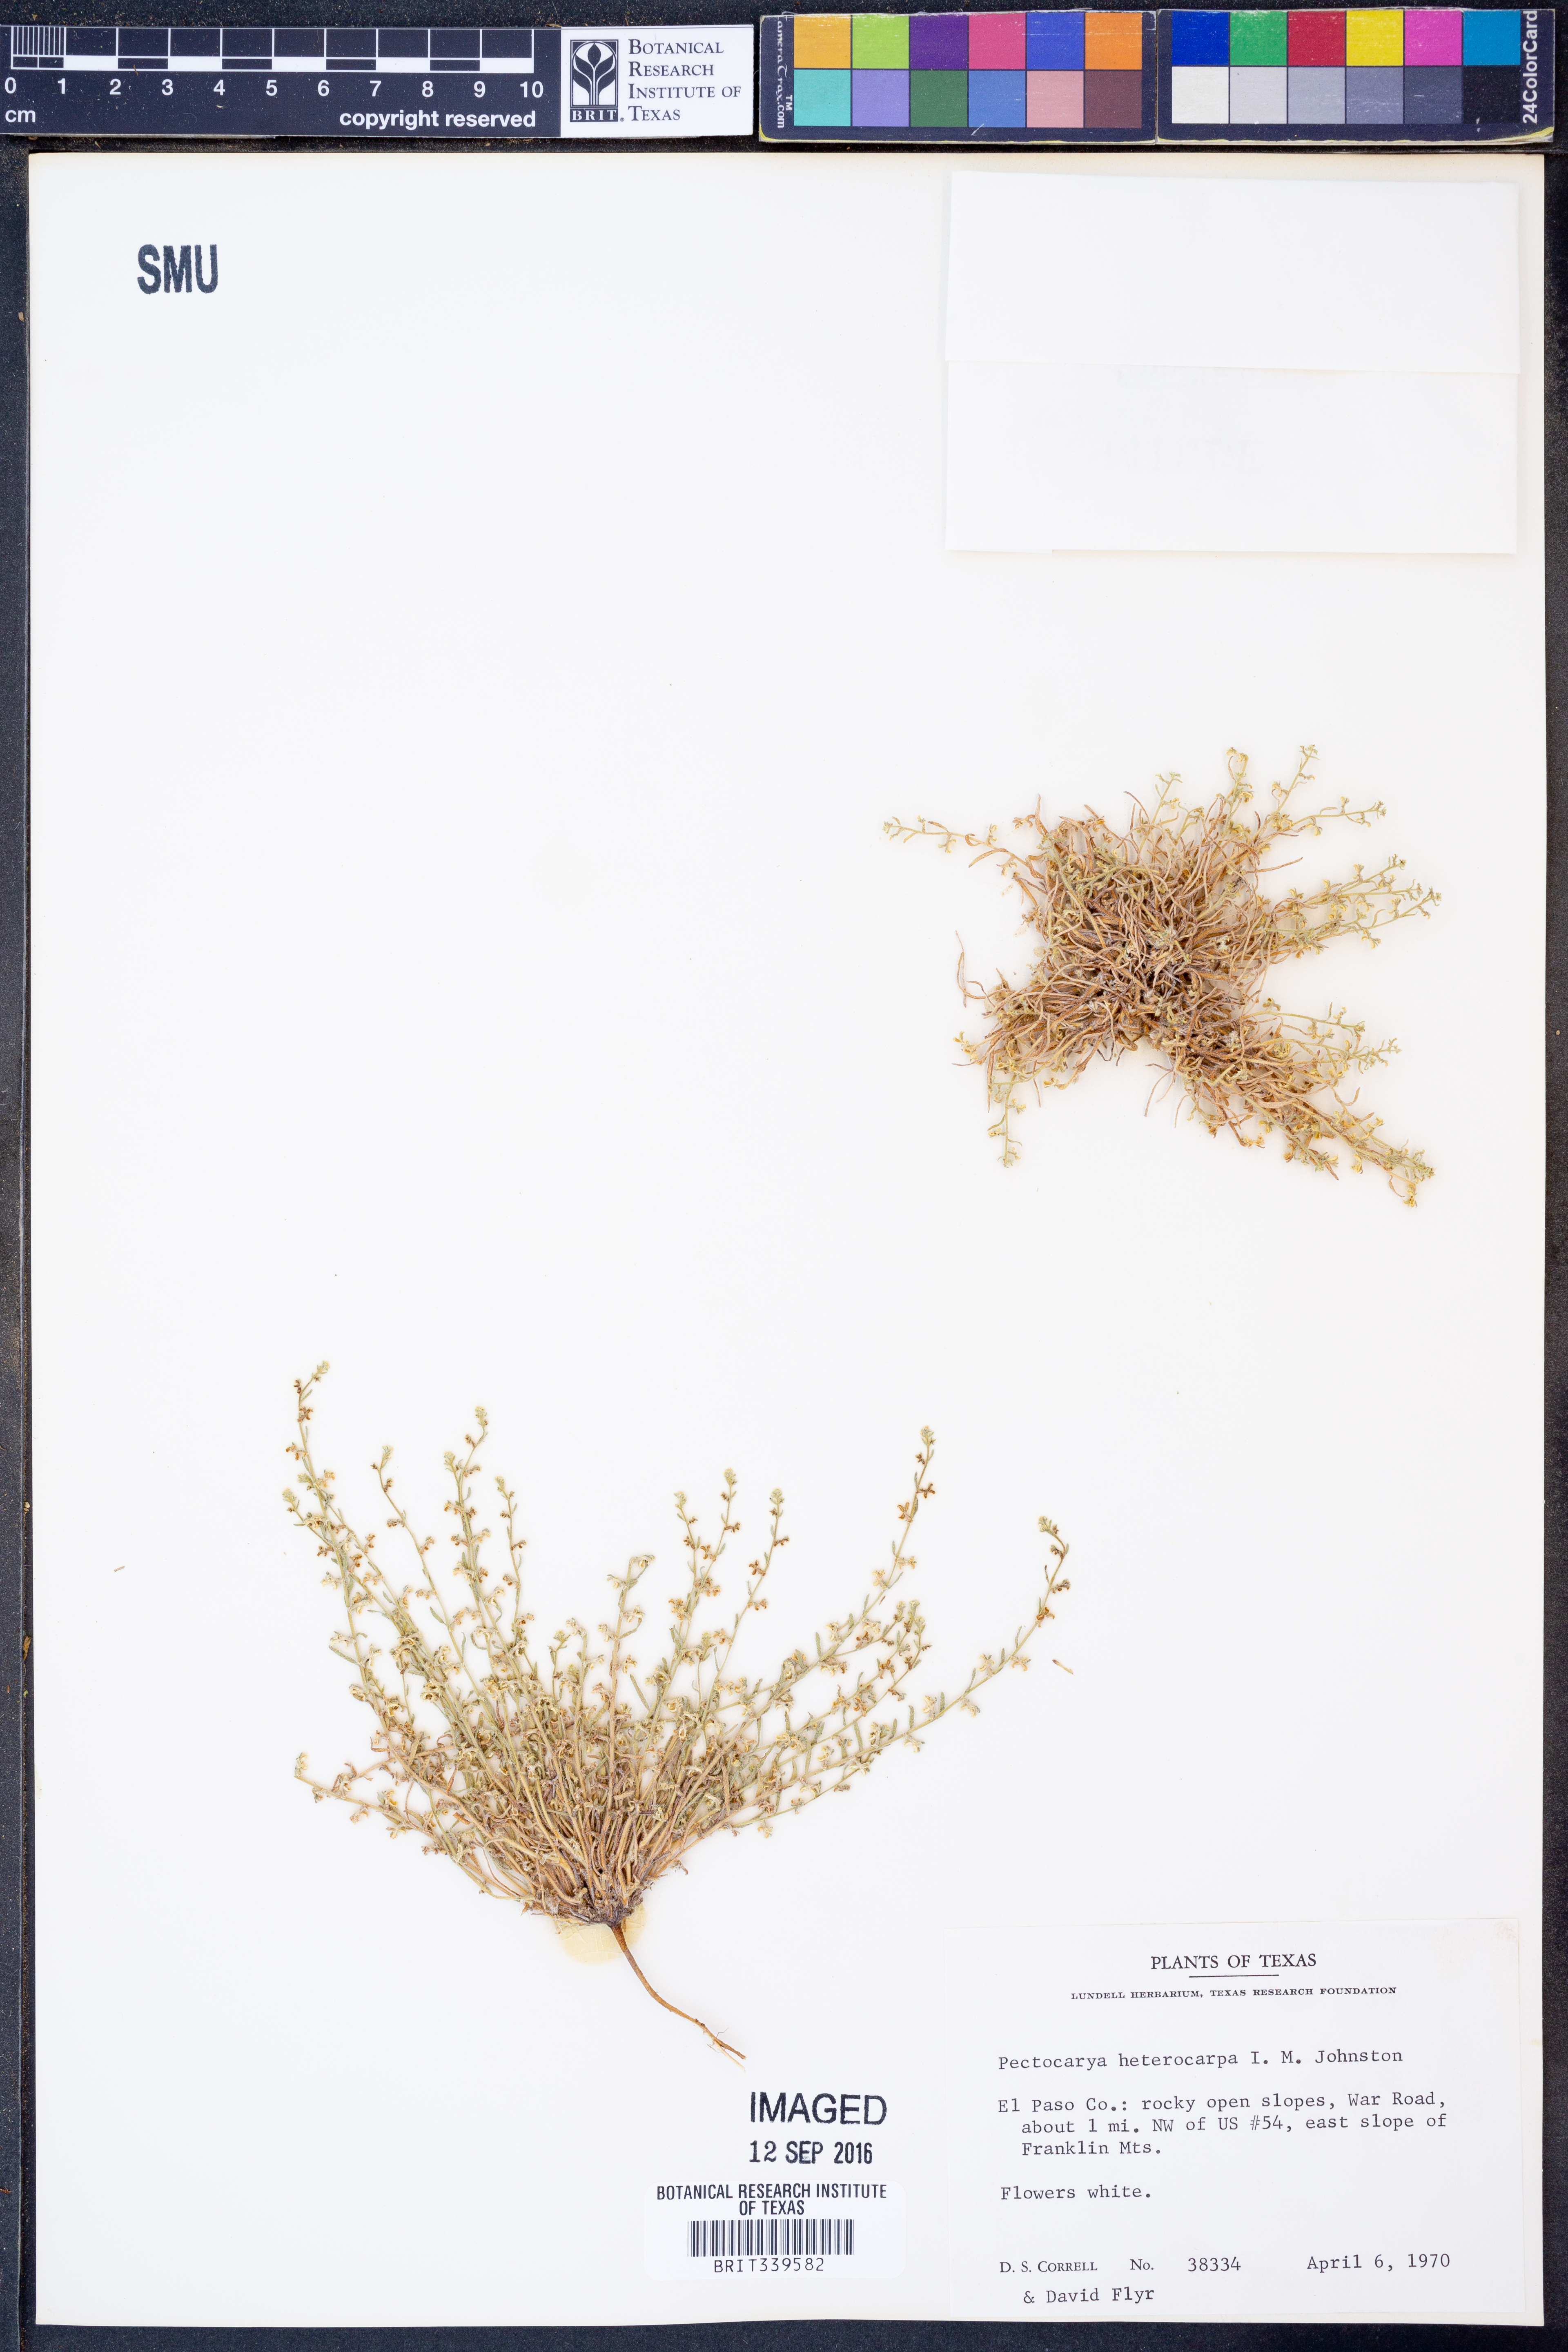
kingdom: Plantae
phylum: Tracheophyta
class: Magnoliopsida
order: Boraginales
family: Boraginaceae
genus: Pectocarya
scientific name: Pectocarya heterocarpa
